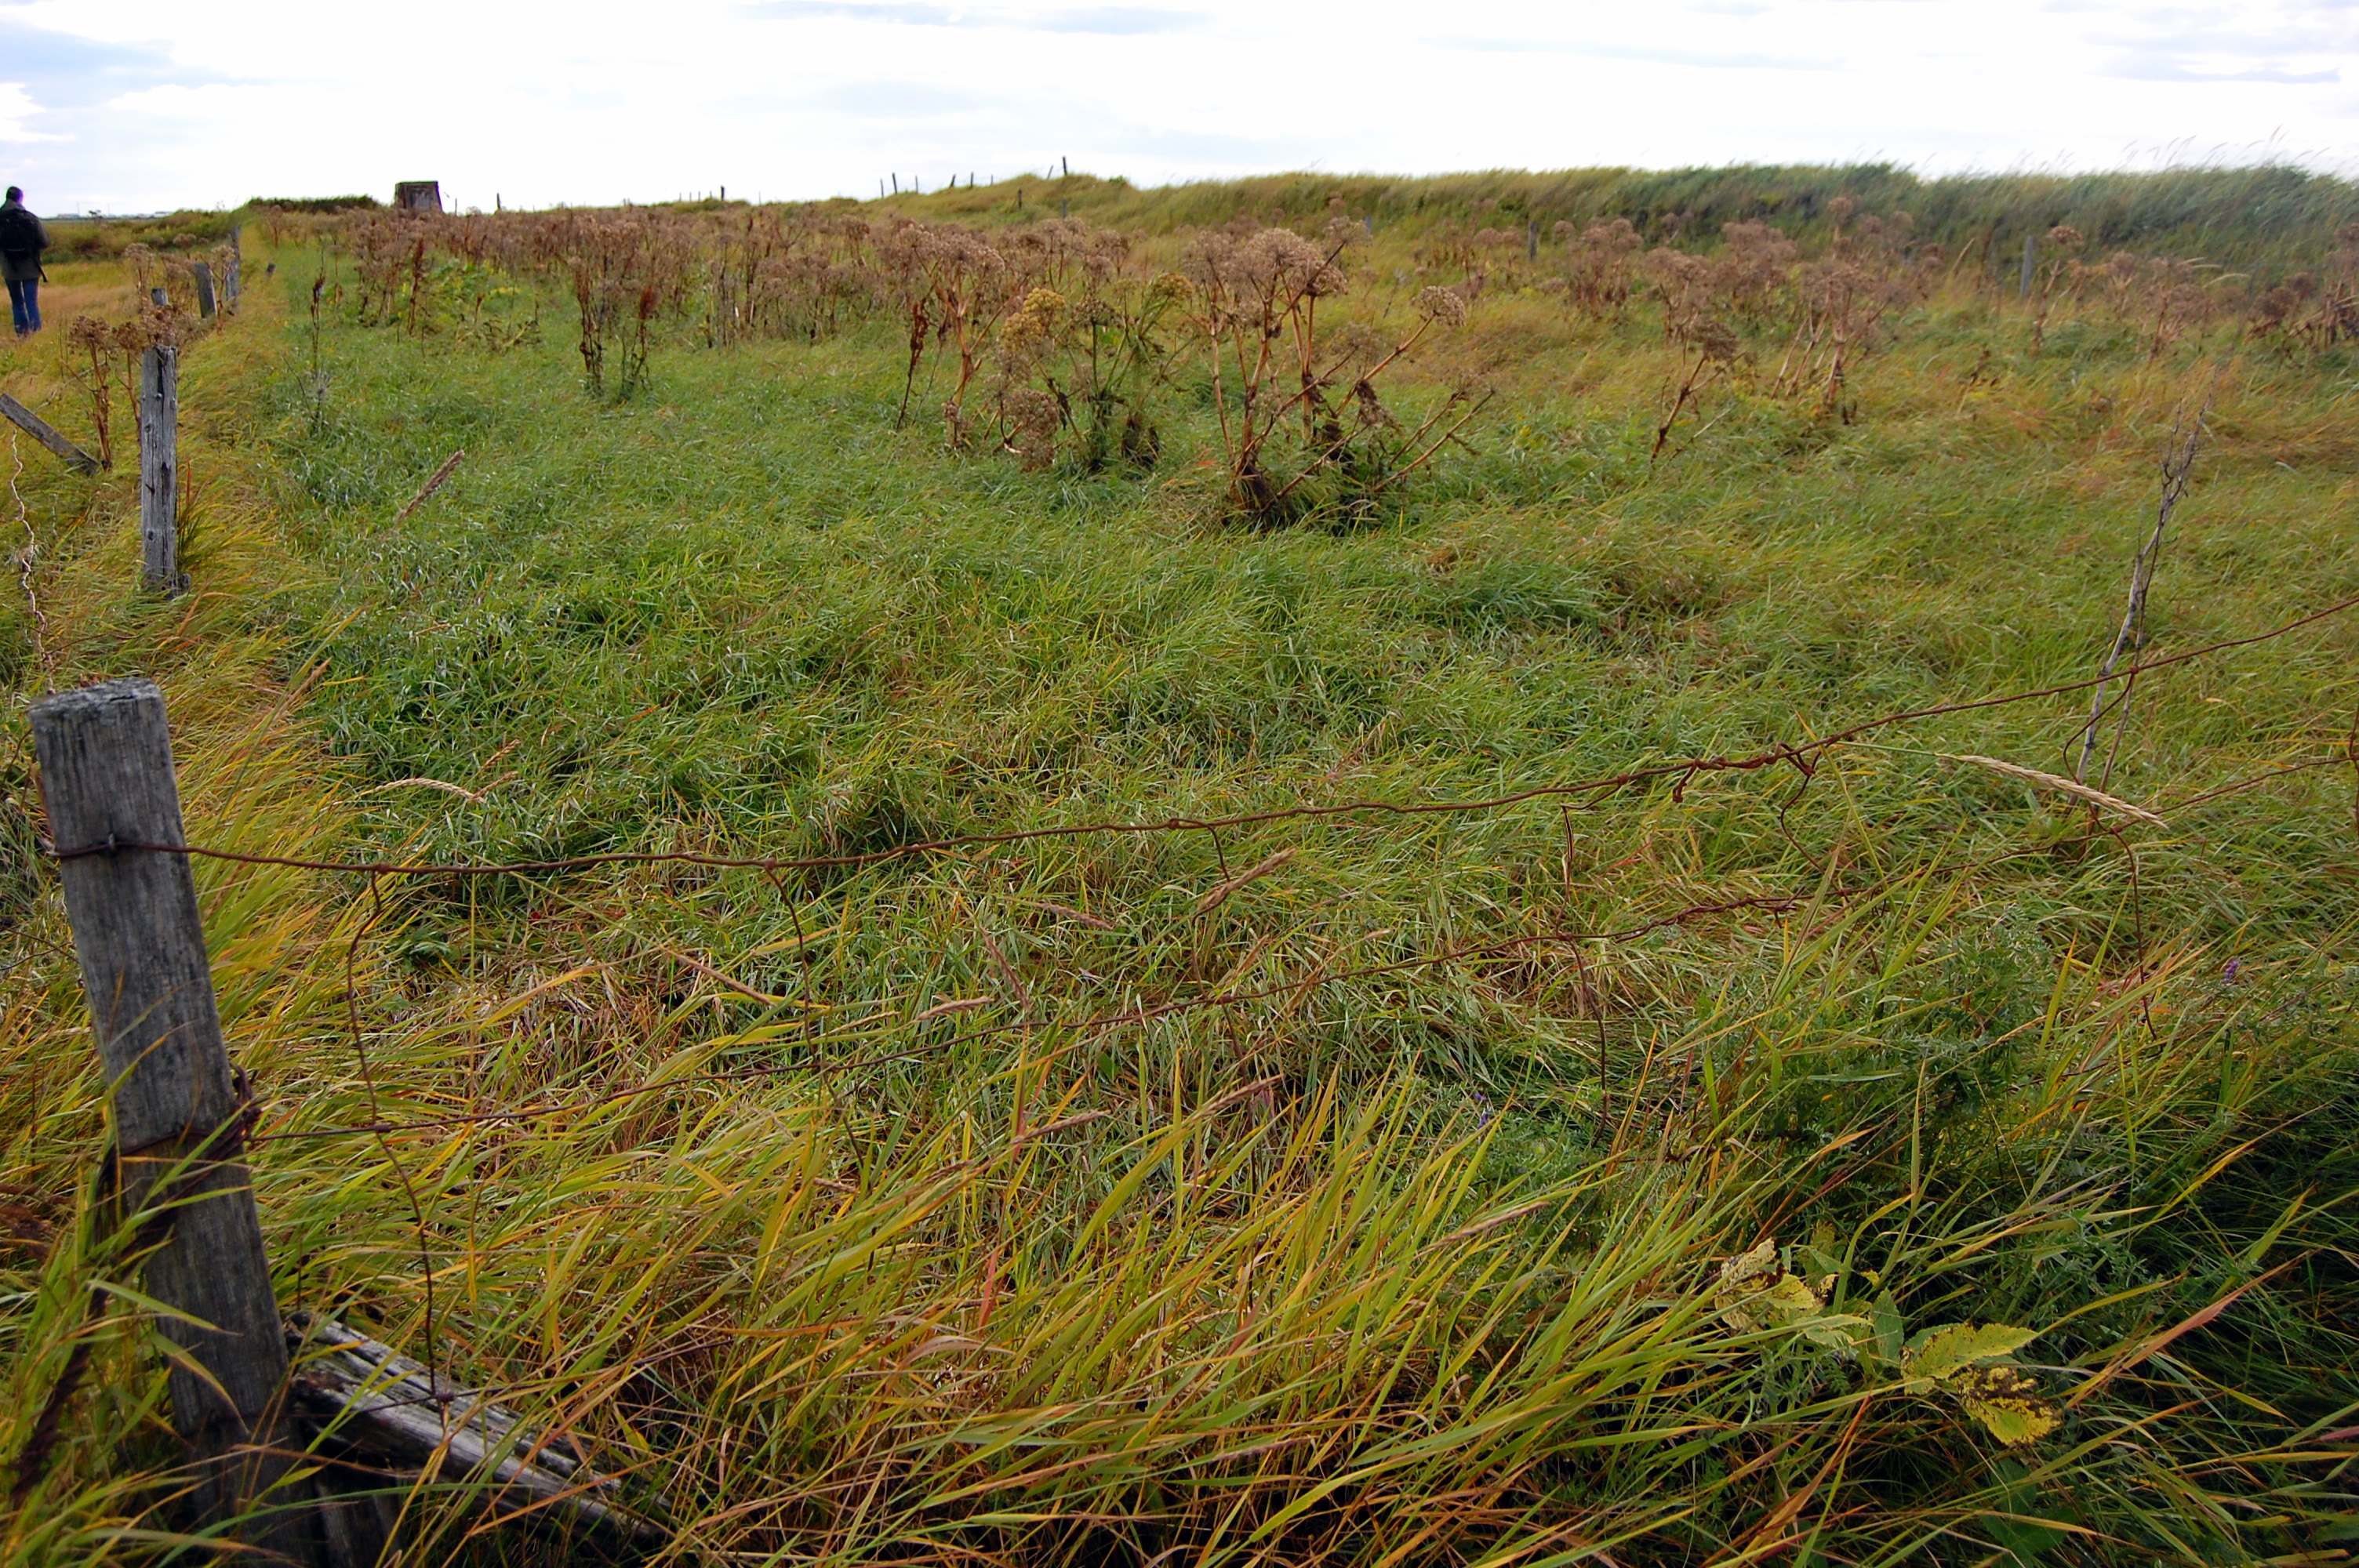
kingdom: Plantae
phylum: Tracheophyta
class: Magnoliopsida
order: Apiales
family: Apiaceae
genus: Angelica
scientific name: Angelica archangelica
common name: Garden angelica
